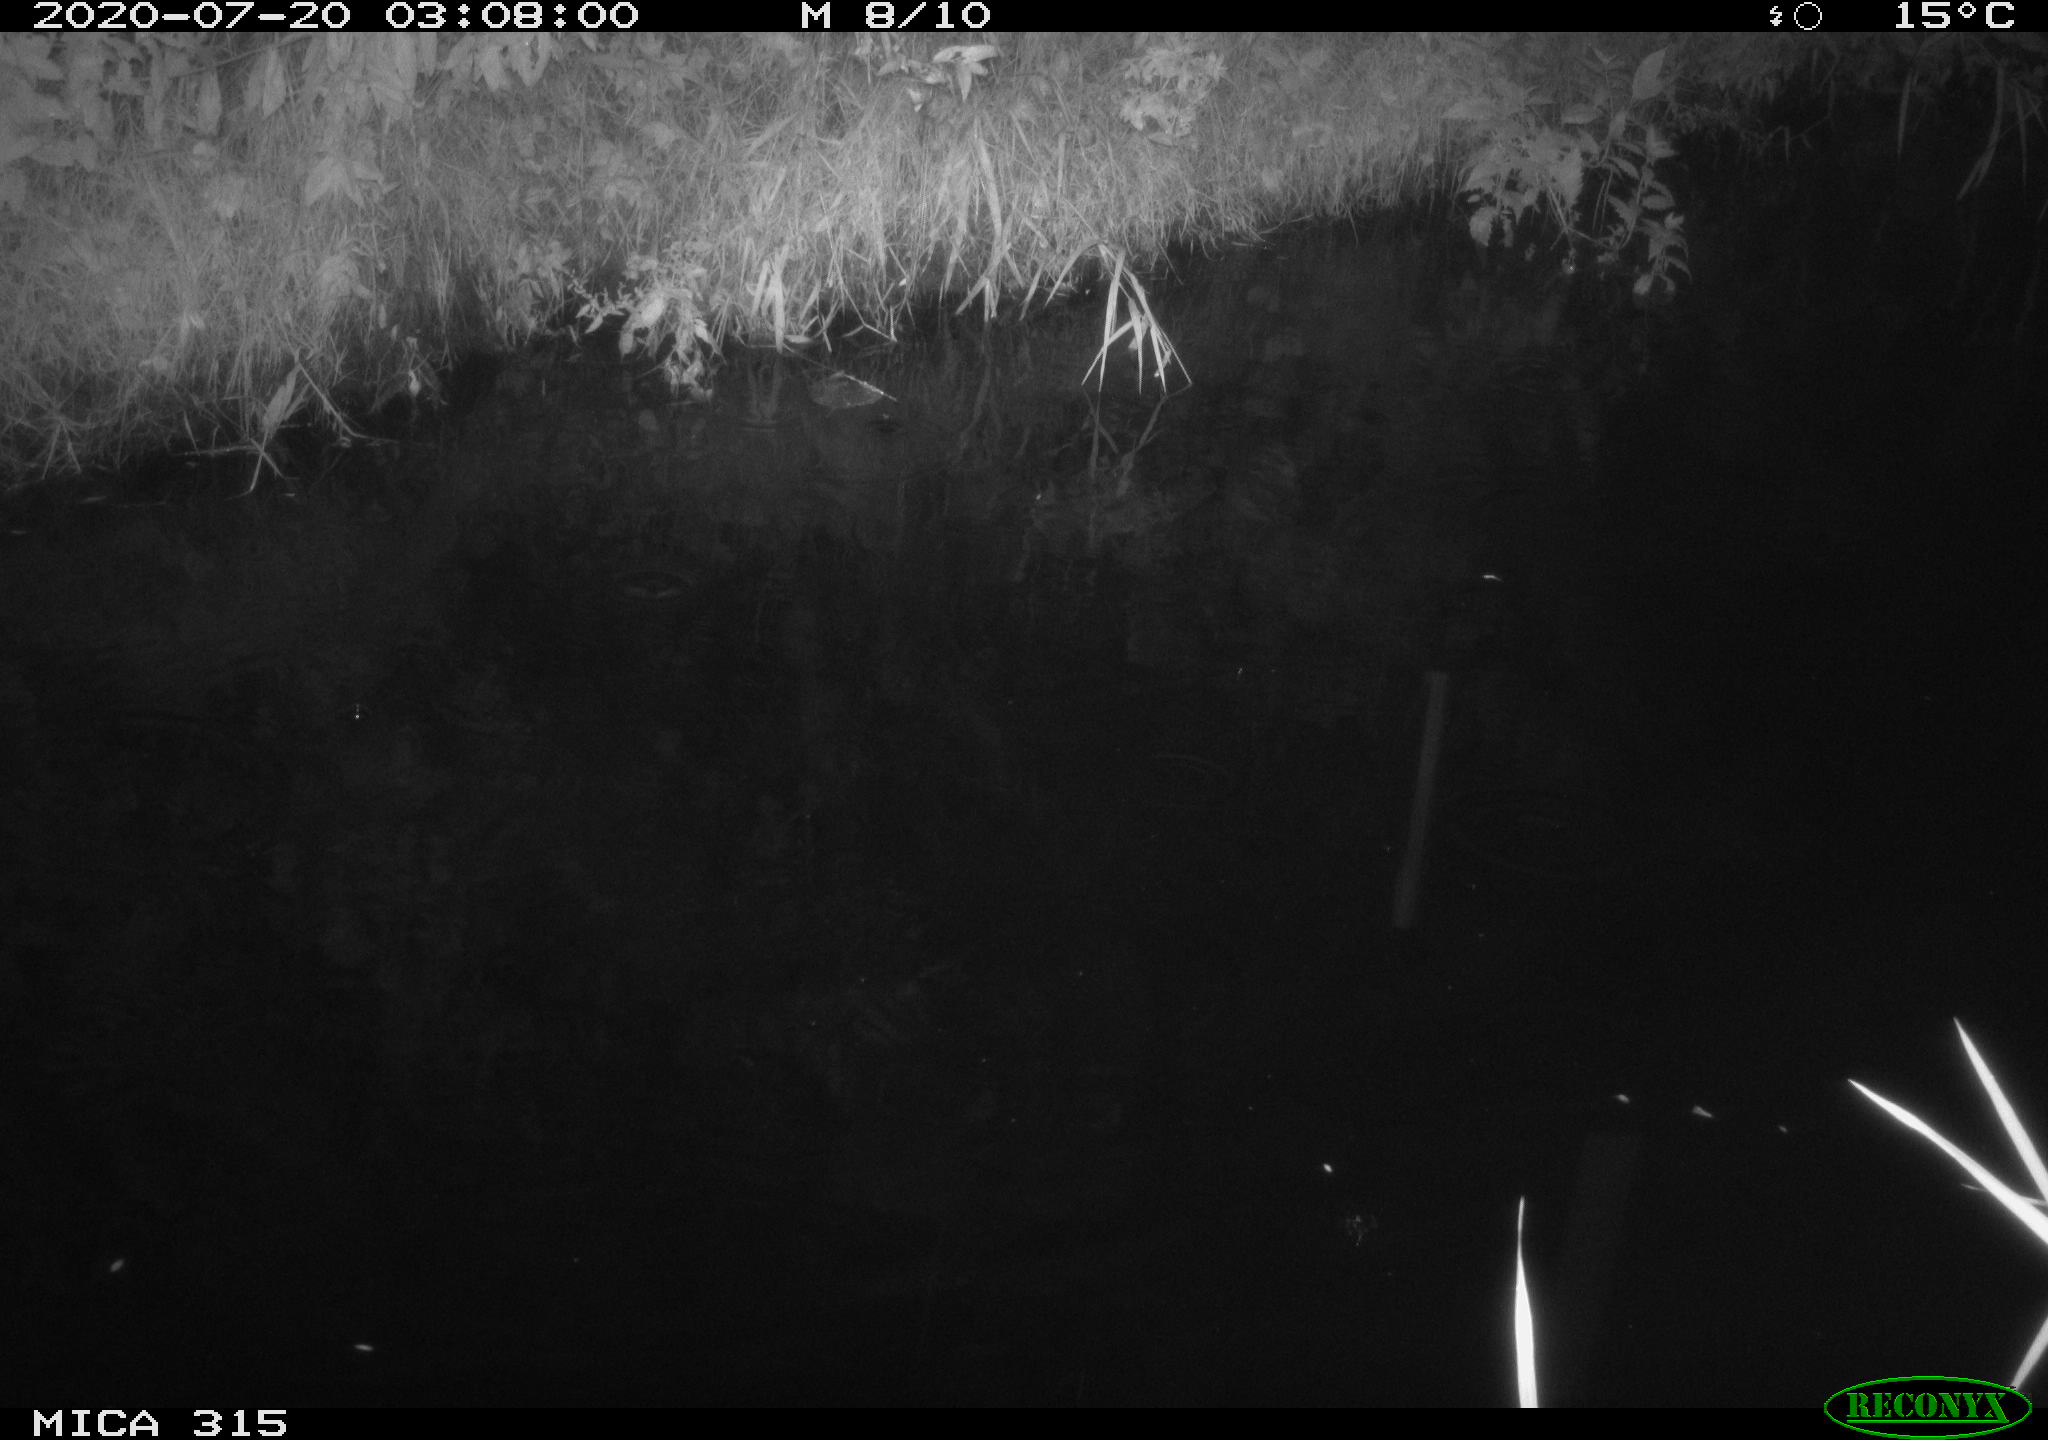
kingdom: Animalia
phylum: Chordata
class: Aves
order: Anseriformes
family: Anatidae
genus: Anas
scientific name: Anas platyrhynchos
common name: Mallard
